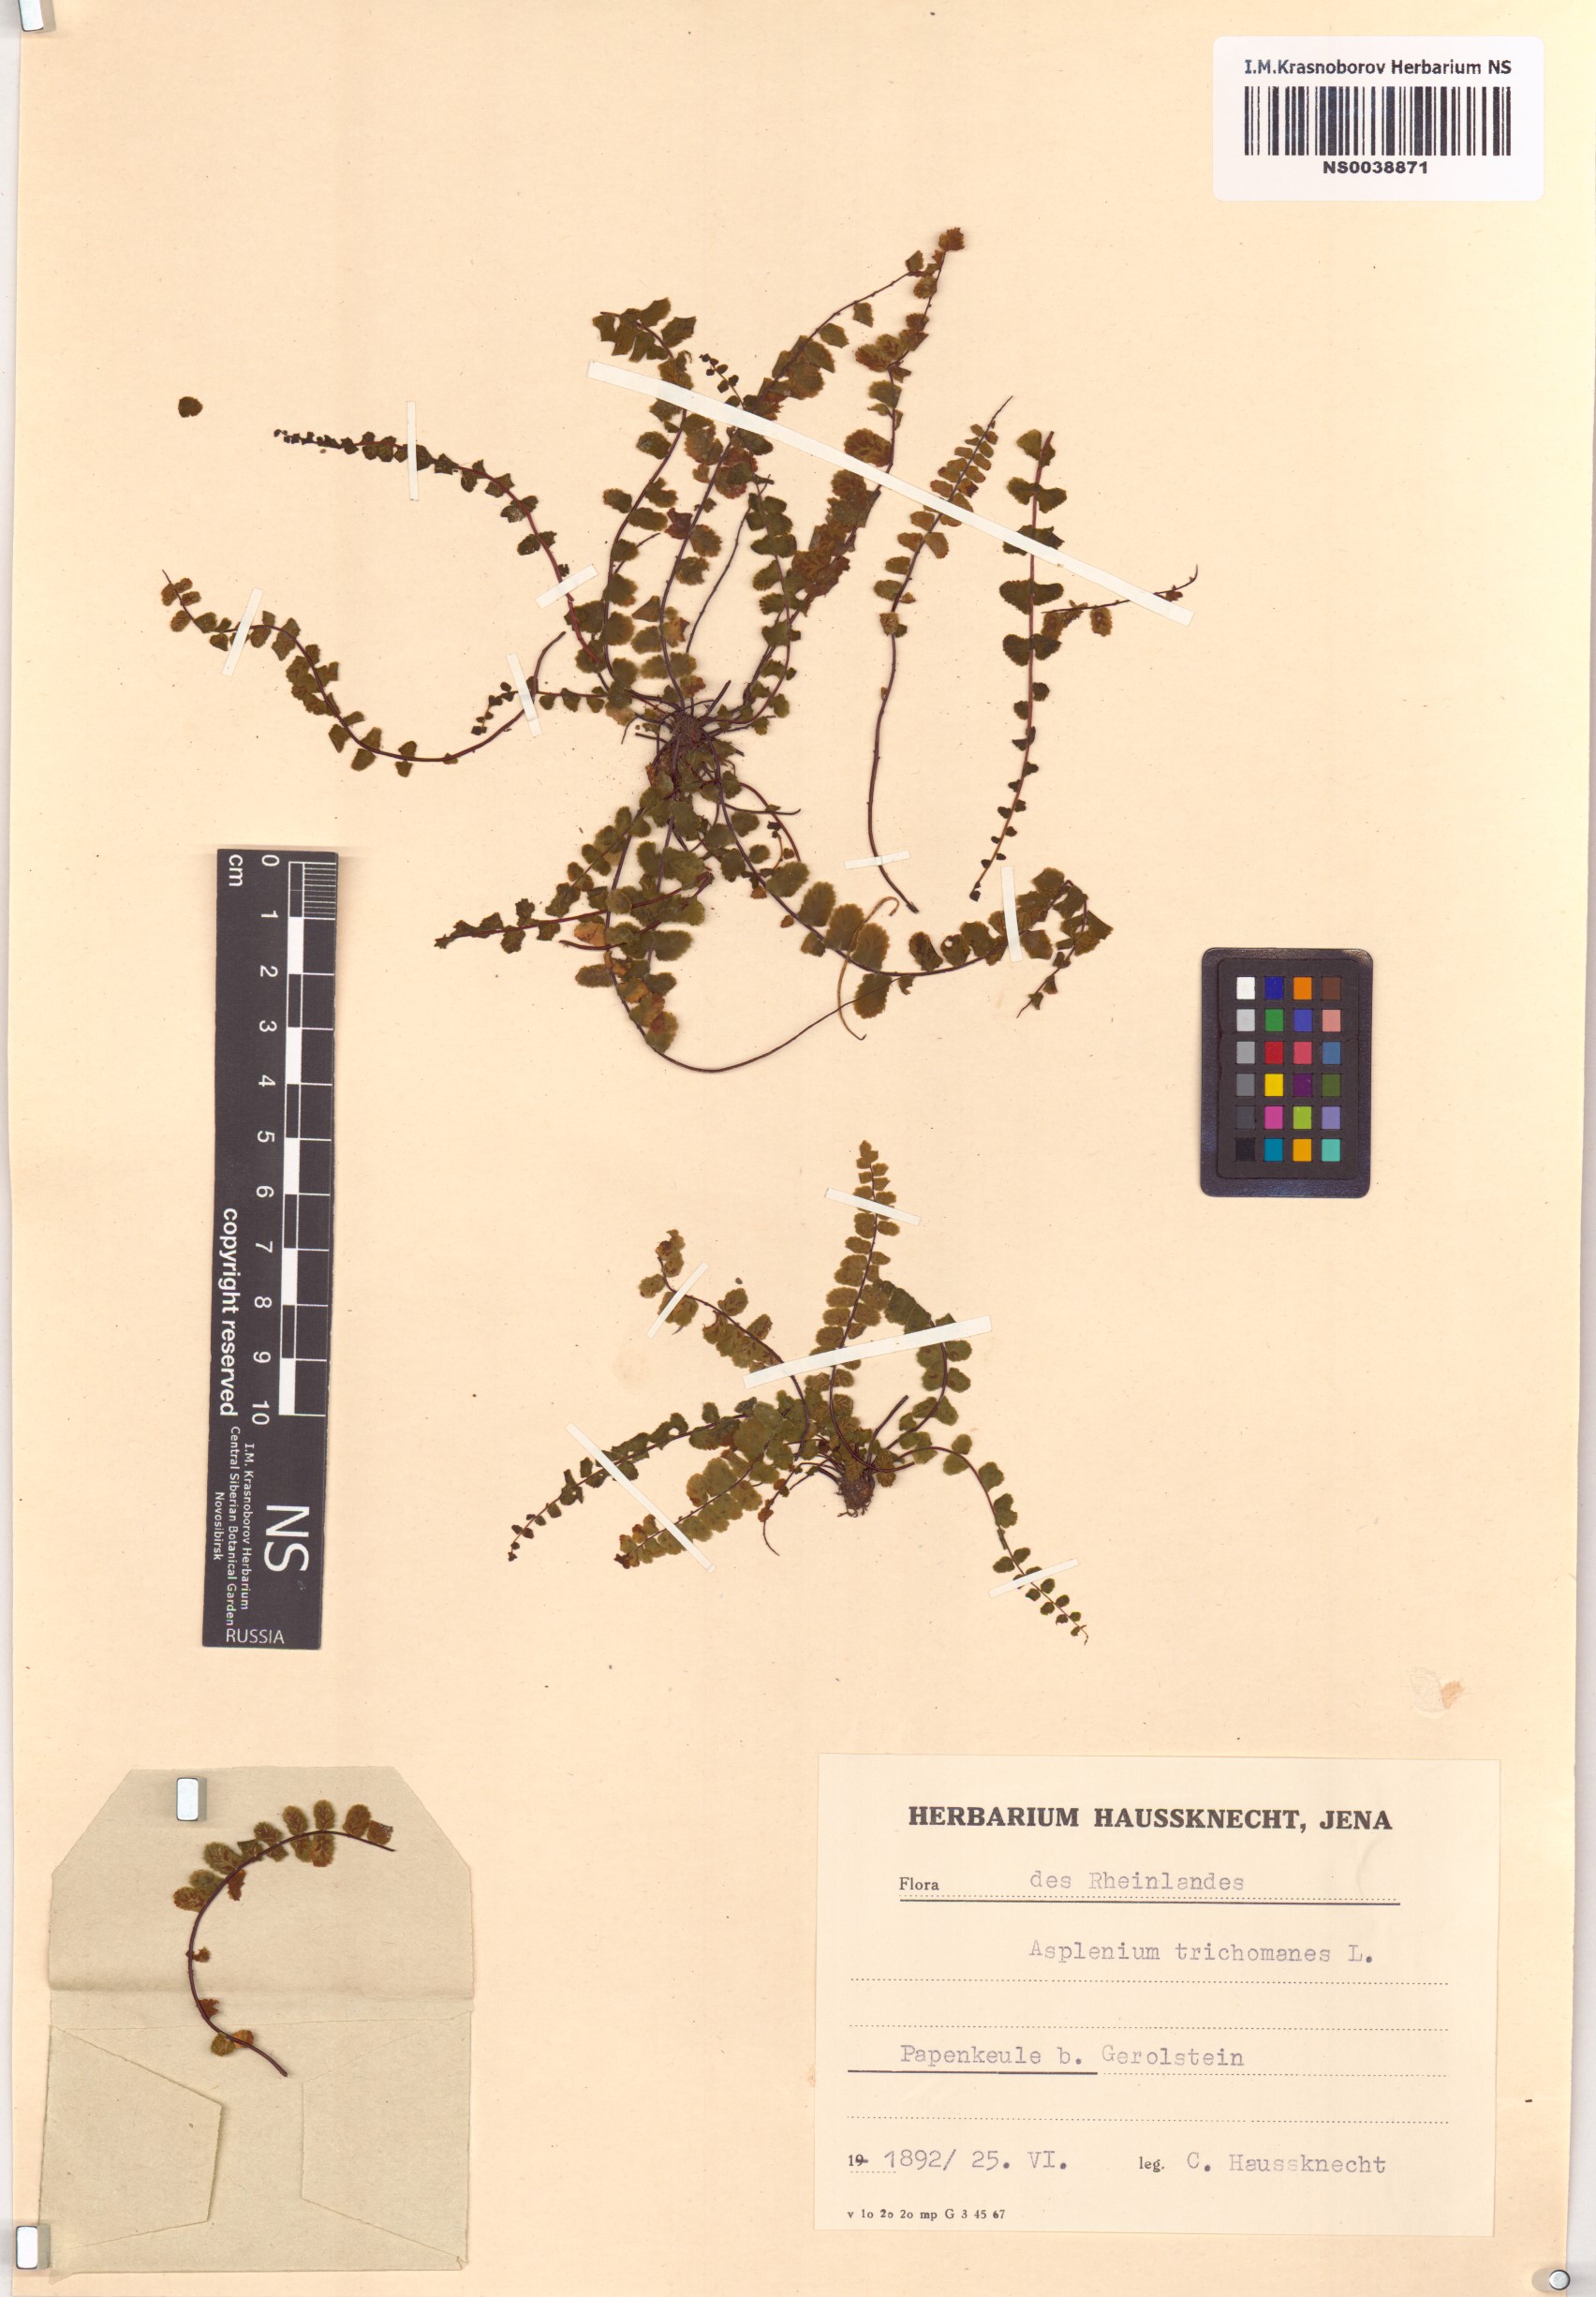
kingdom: Plantae
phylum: Tracheophyta
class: Polypodiopsida
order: Polypodiales
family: Aspleniaceae
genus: Asplenium
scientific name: Asplenium trichomanes
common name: Maidenhair spleenwort
